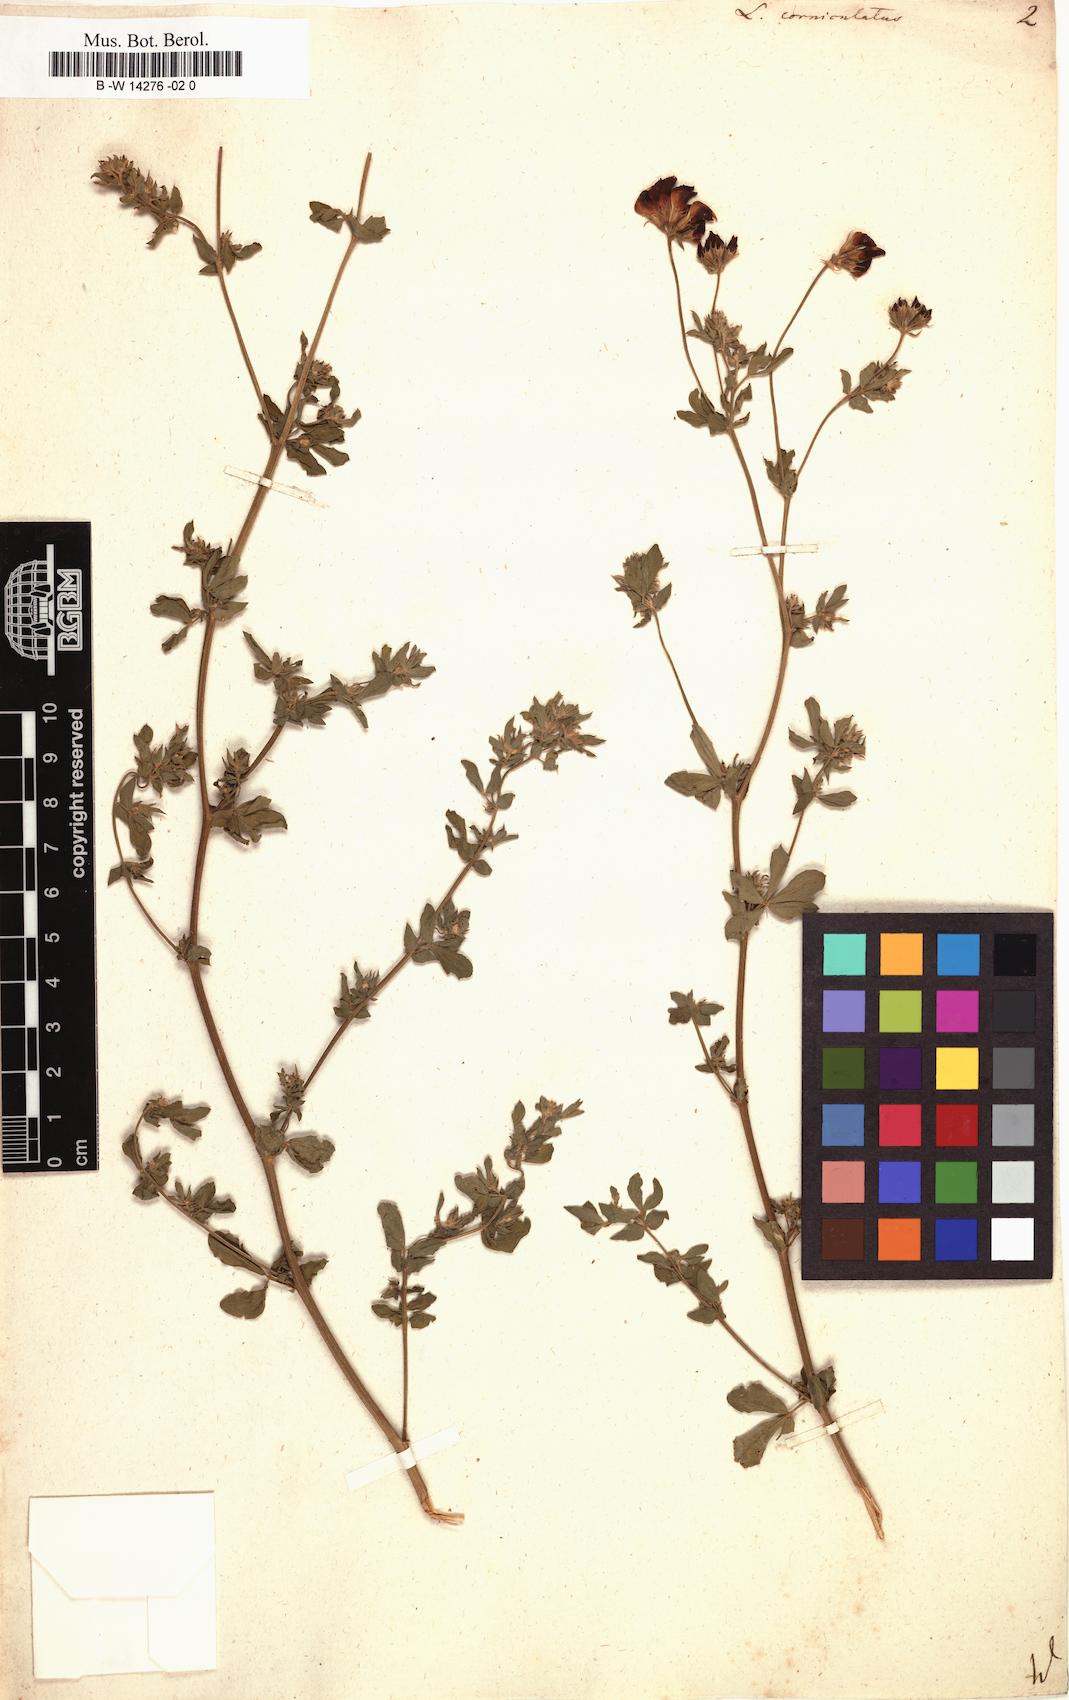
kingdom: Plantae
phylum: Tracheophyta
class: Magnoliopsida
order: Fabales
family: Fabaceae
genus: Lotus
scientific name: Lotus corniculatus
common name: Common bird's-foot-trefoil
